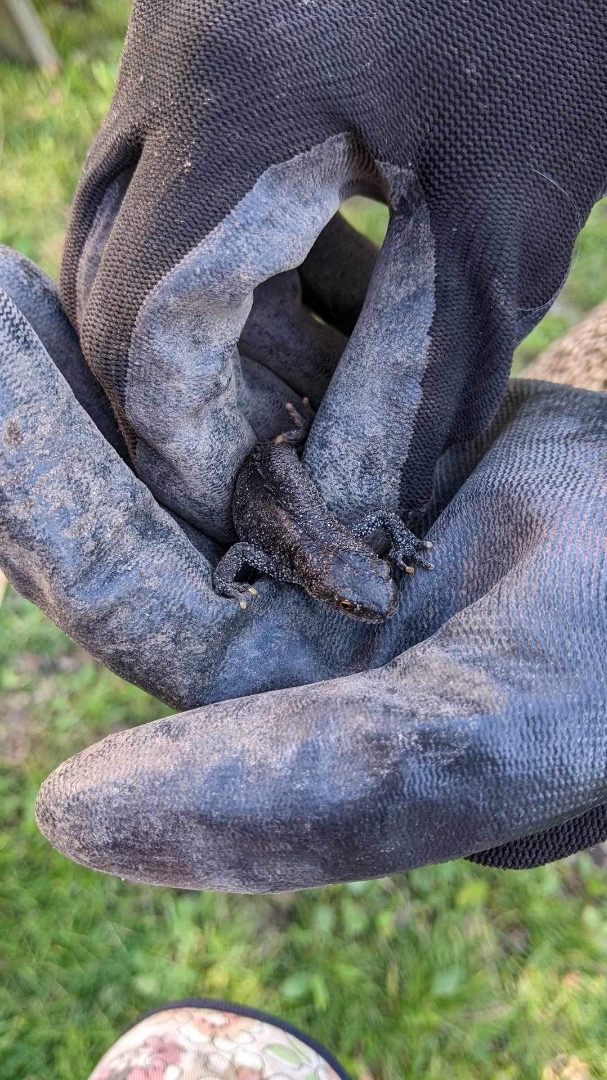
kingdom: Animalia
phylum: Chordata
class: Amphibia
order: Caudata
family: Salamandridae
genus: Triturus
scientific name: Triturus cristatus
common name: Stor vandsalamander
